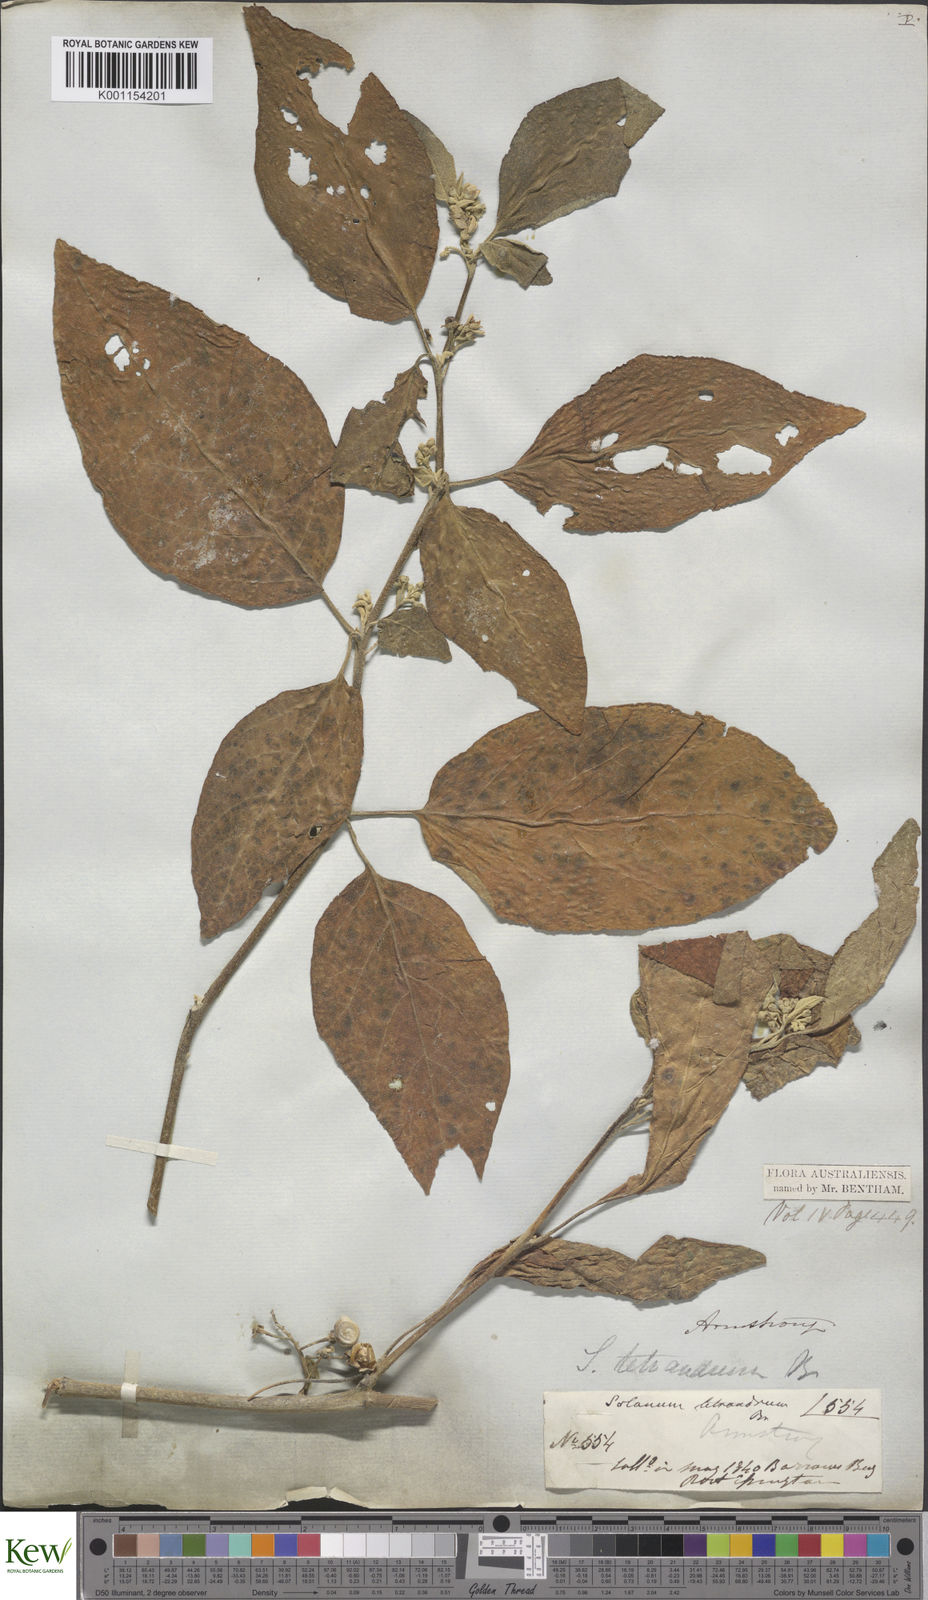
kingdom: Plantae
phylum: Tracheophyta
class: Magnoliopsida
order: Solanales
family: Solanaceae
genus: Solanum
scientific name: Solanum tetrandrum
